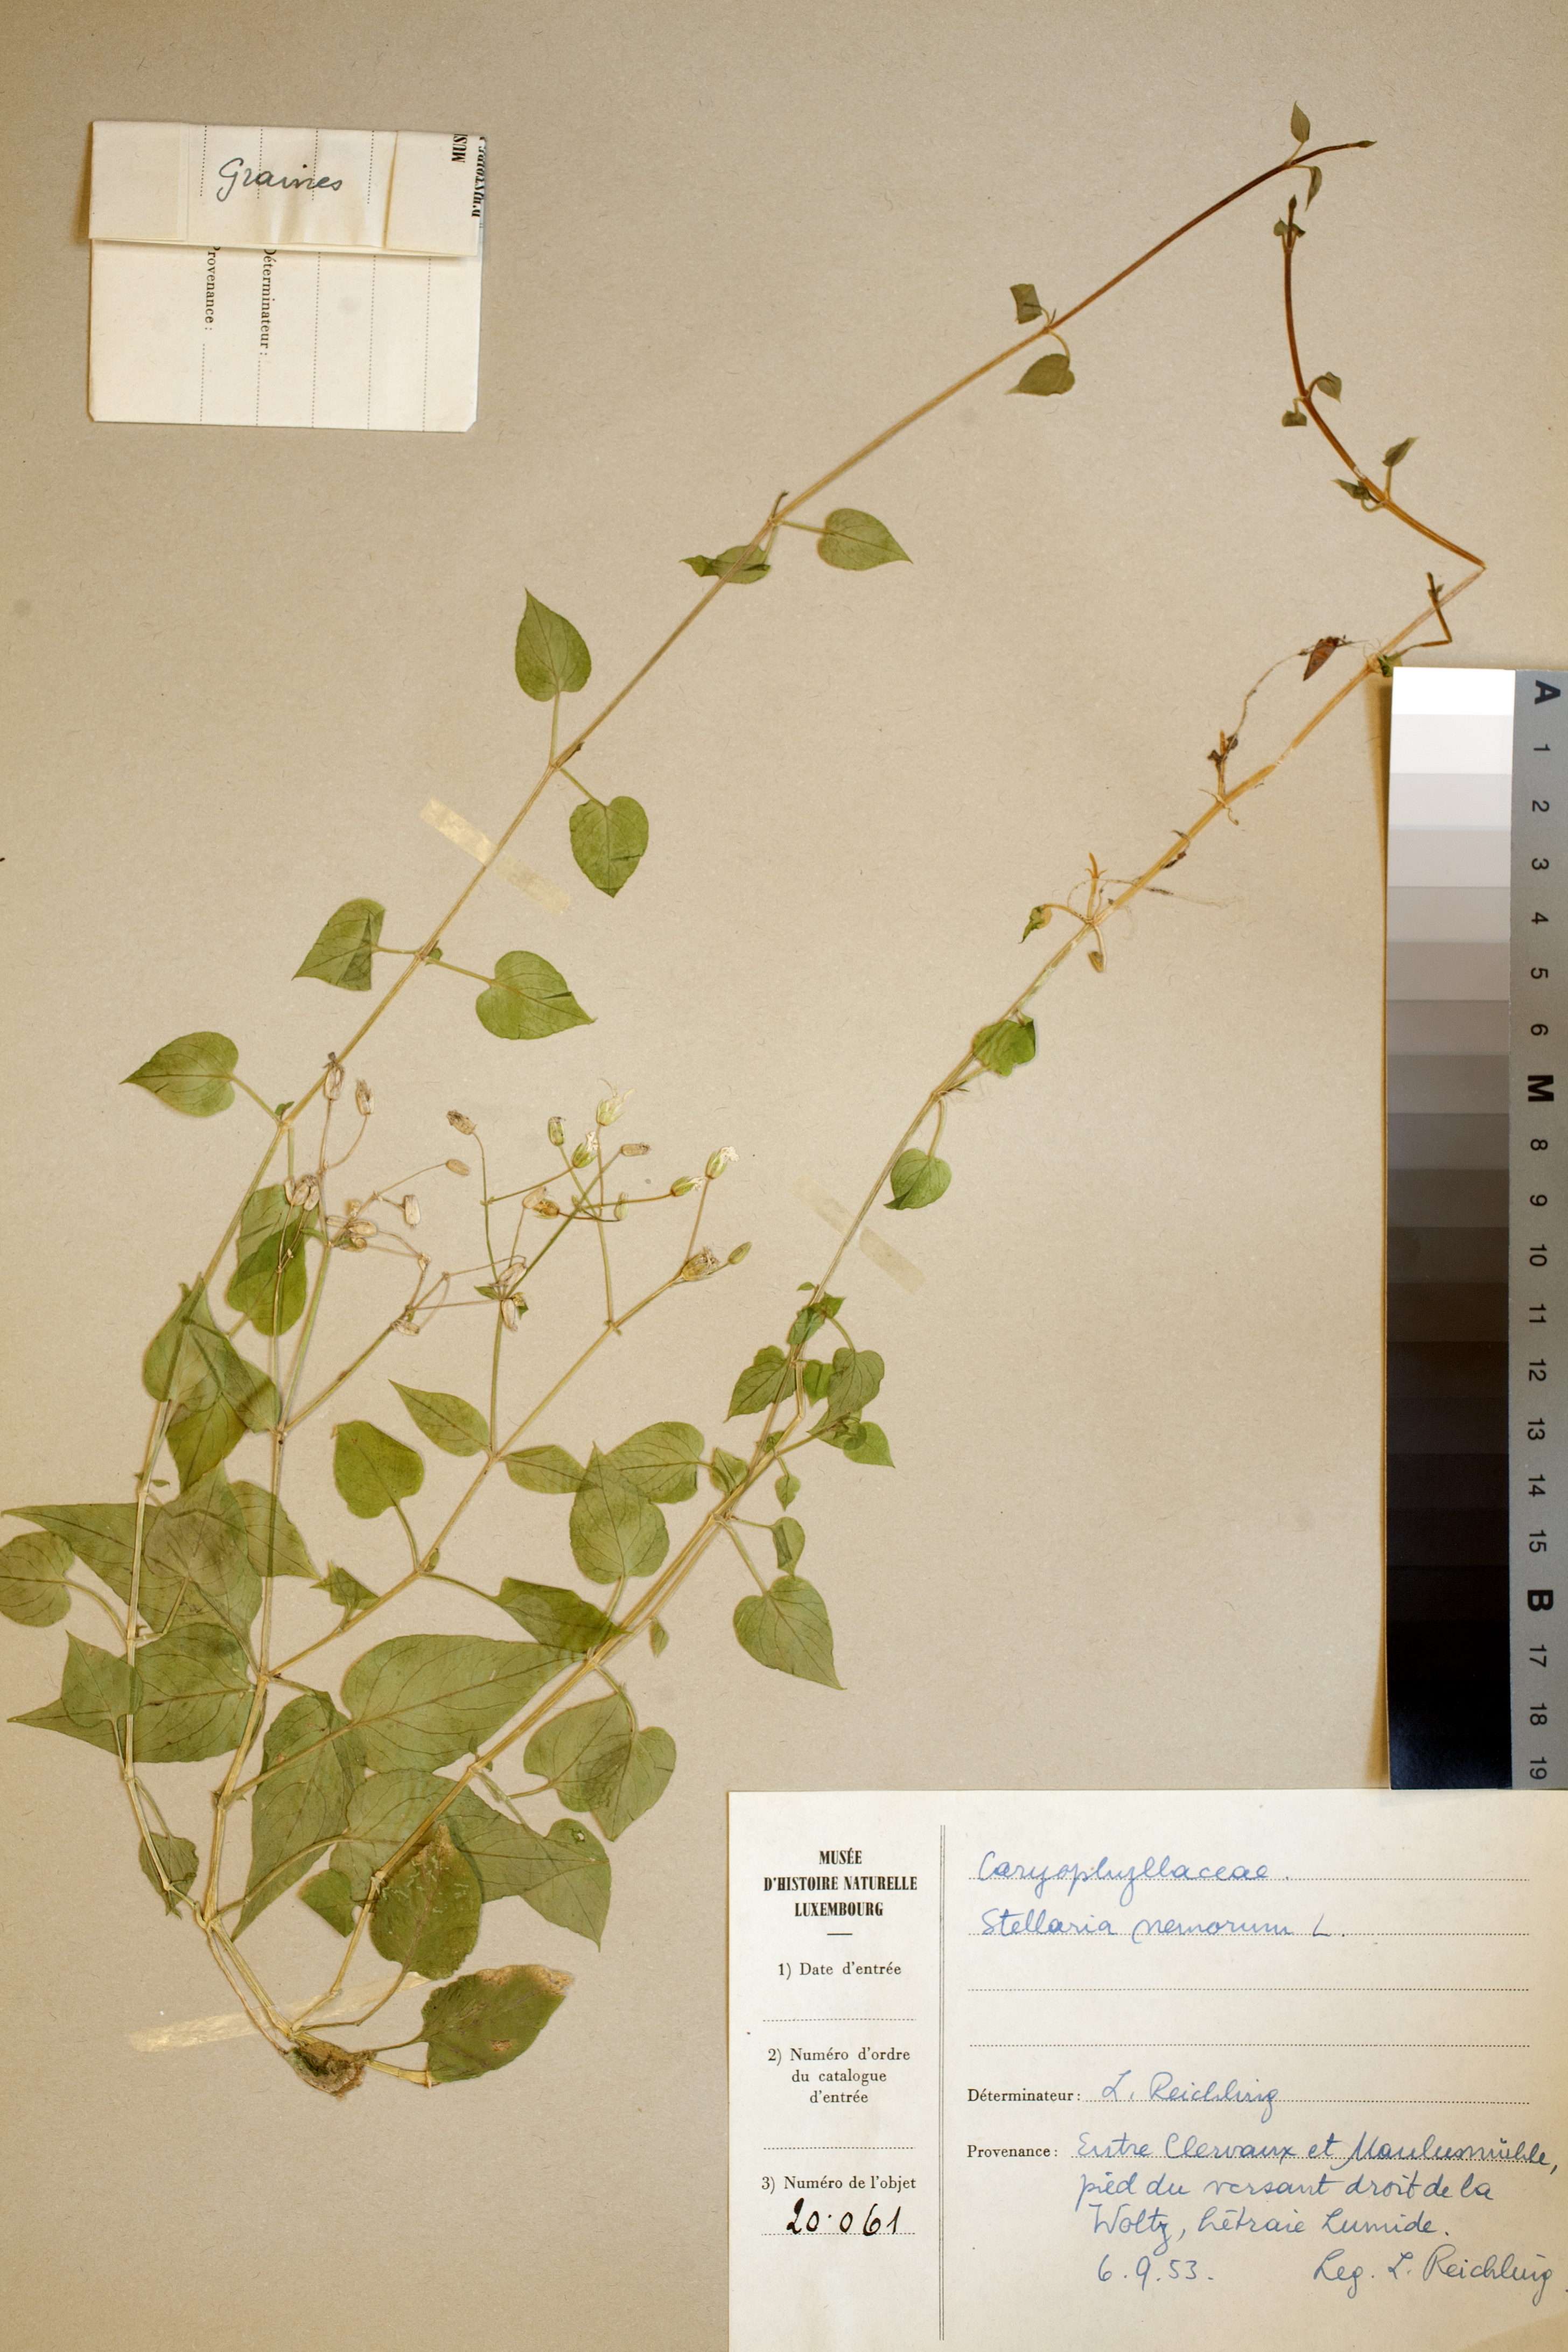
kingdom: Plantae
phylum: Tracheophyta
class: Magnoliopsida
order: Caryophyllales
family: Caryophyllaceae
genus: Stellaria
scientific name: Stellaria nemorum
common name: Wood stitchwort
